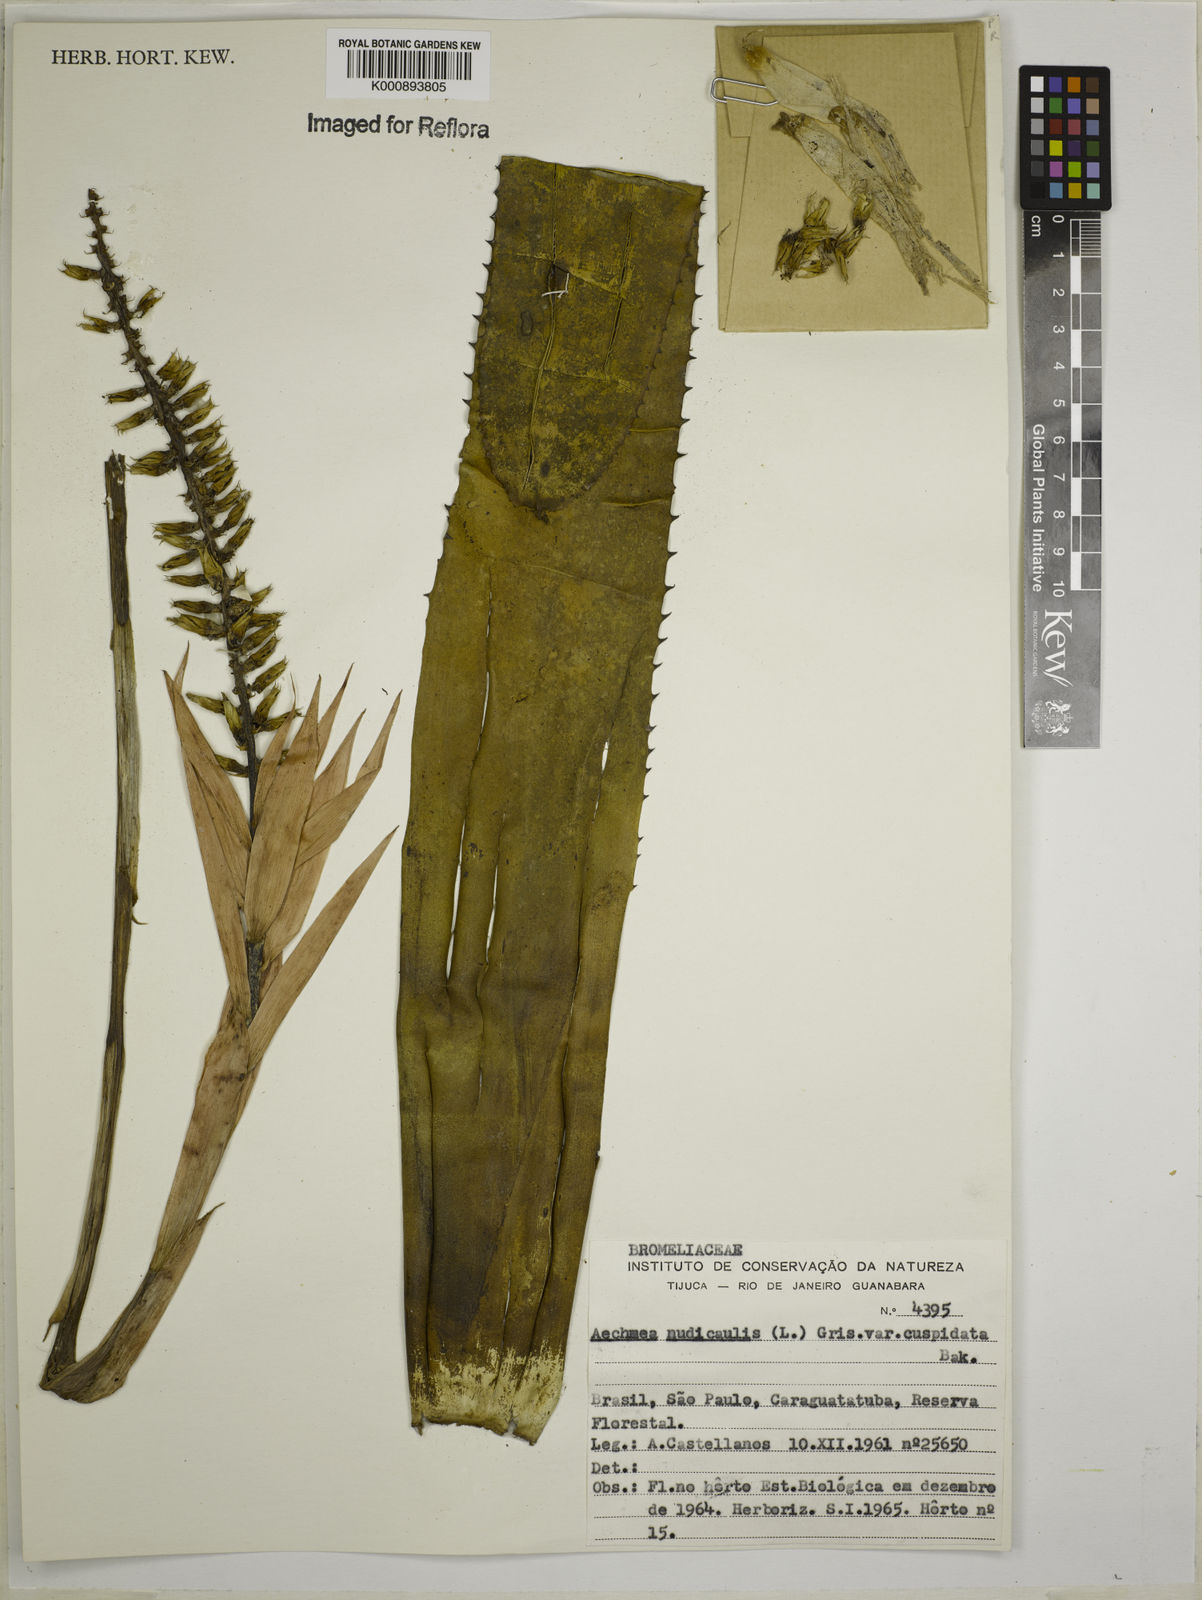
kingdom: Plantae
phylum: Tracheophyta
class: Liliopsida
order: Poales
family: Bromeliaceae
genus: Aechmea
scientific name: Aechmea nudicaulis
